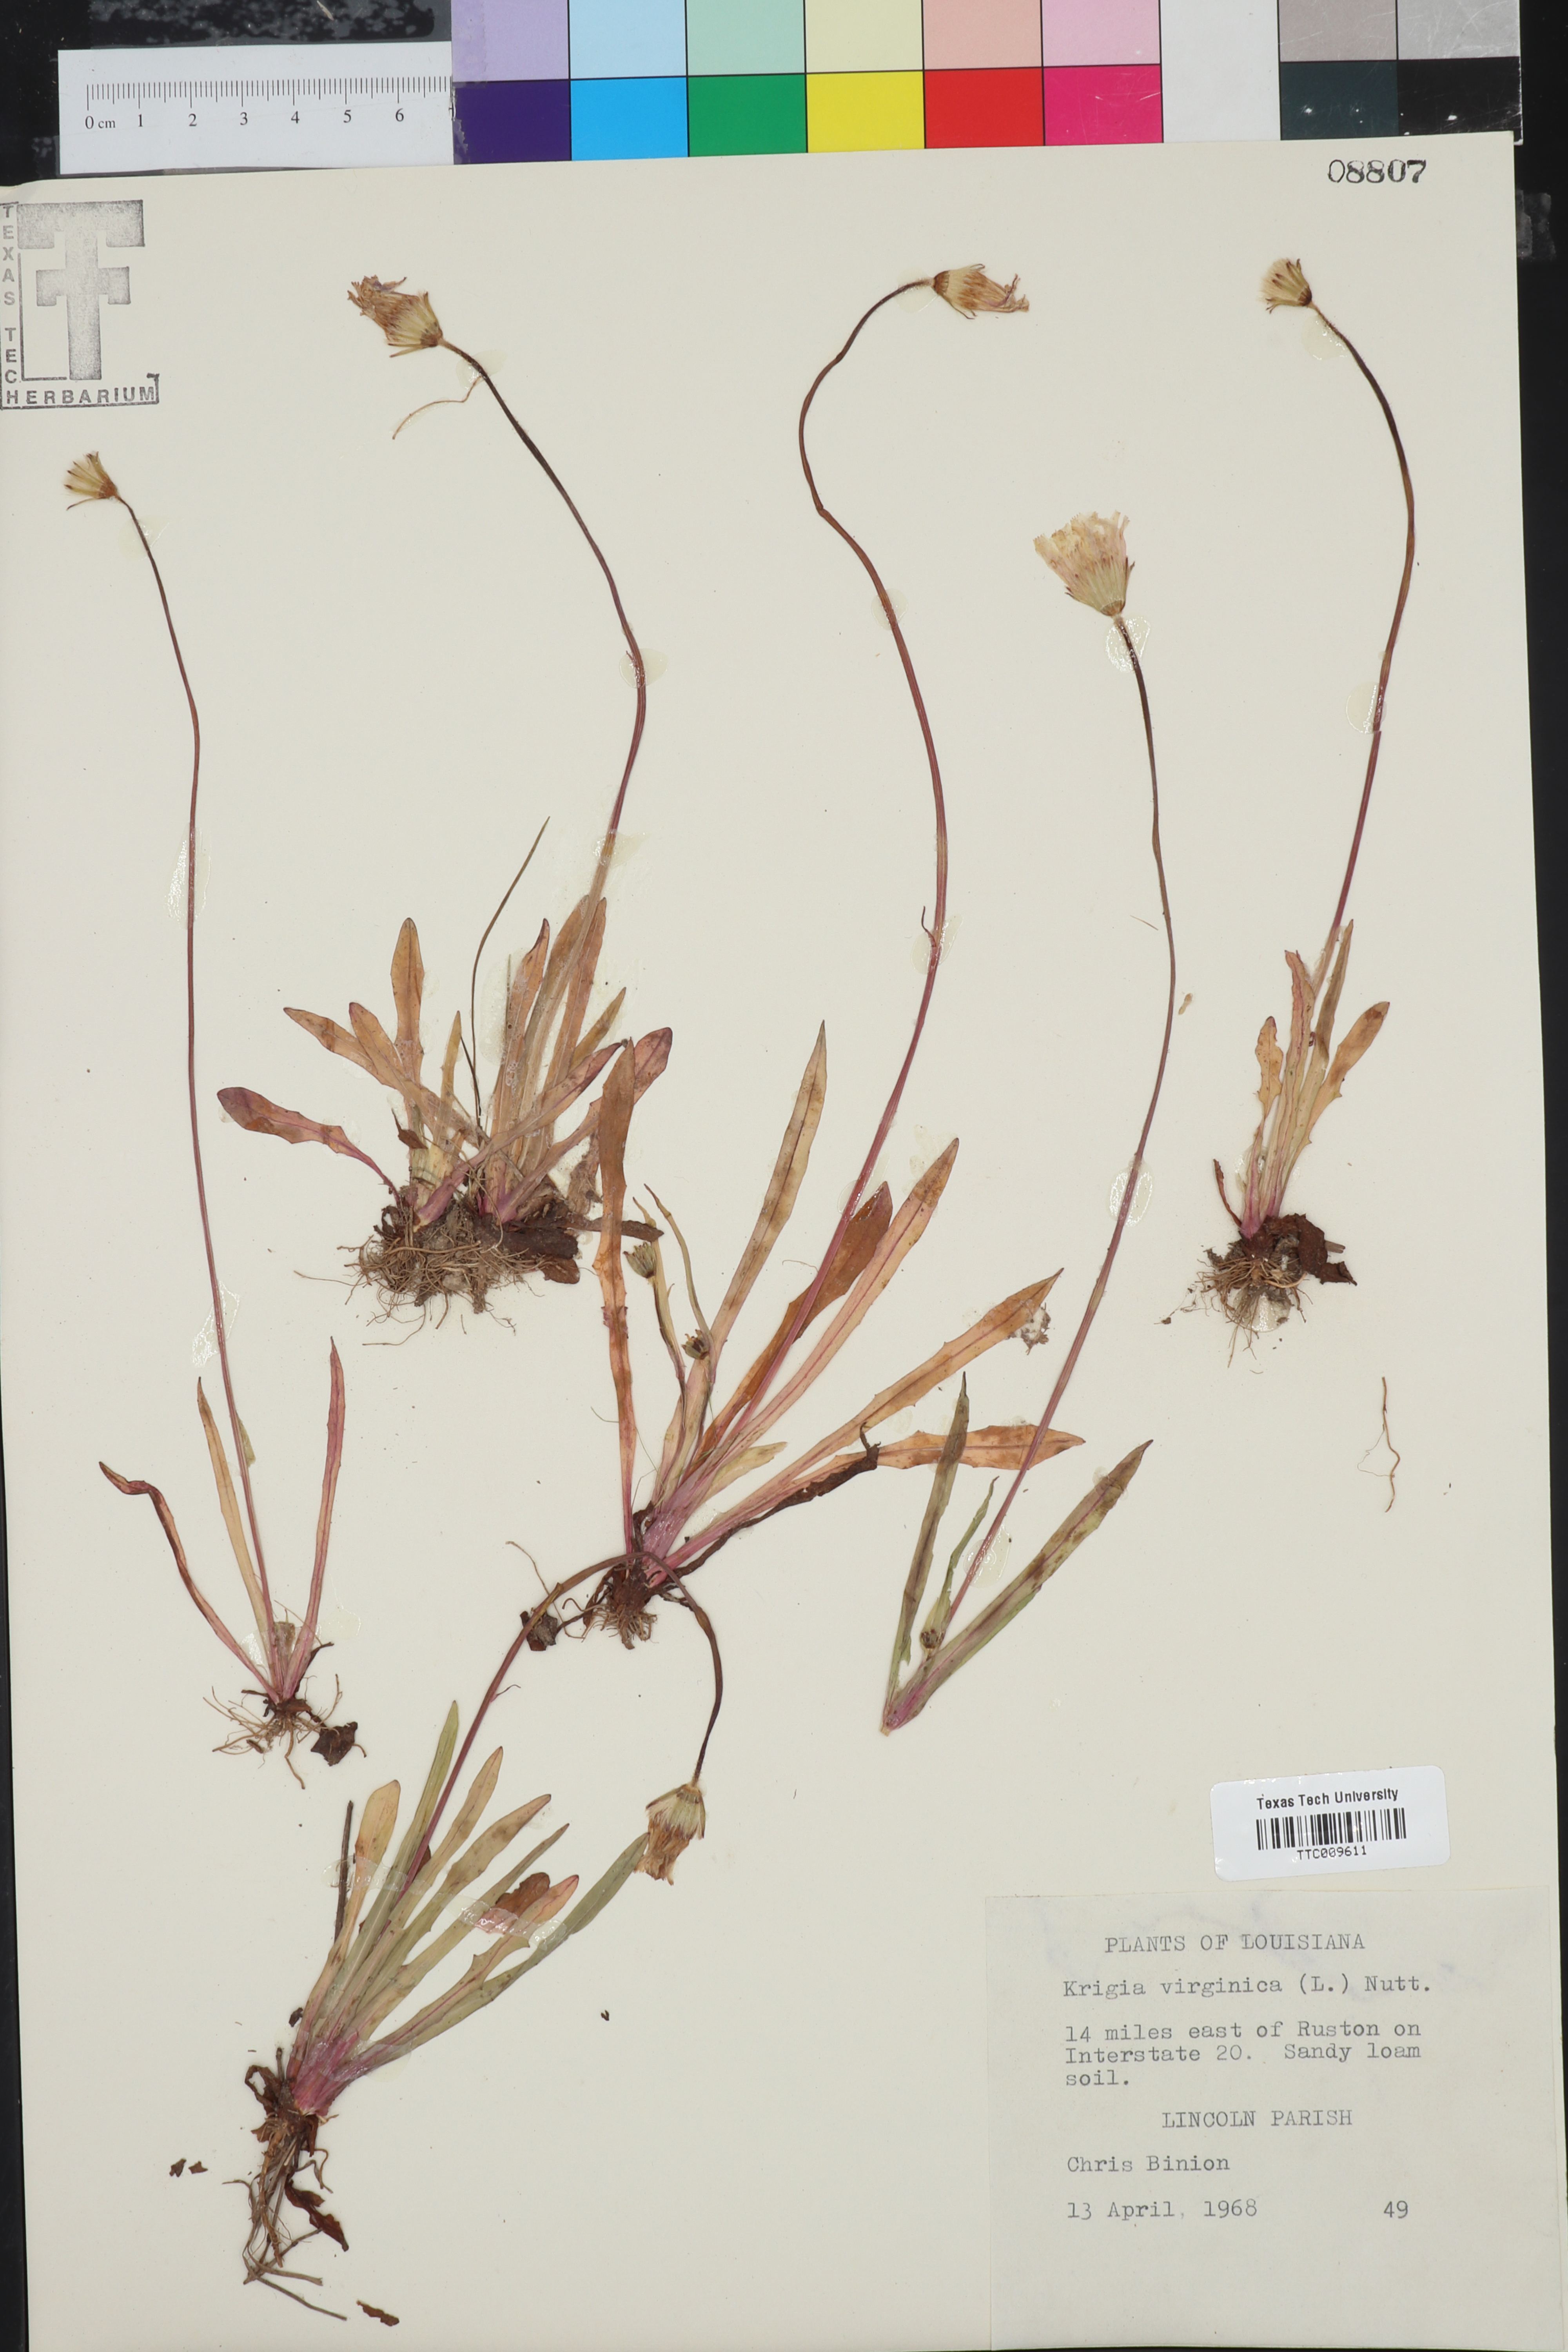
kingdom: Plantae
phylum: Tracheophyta
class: Magnoliopsida
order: Asterales
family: Asteraceae
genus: Krigia
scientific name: Krigia virginica
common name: Virginia dwarf-dandelion
